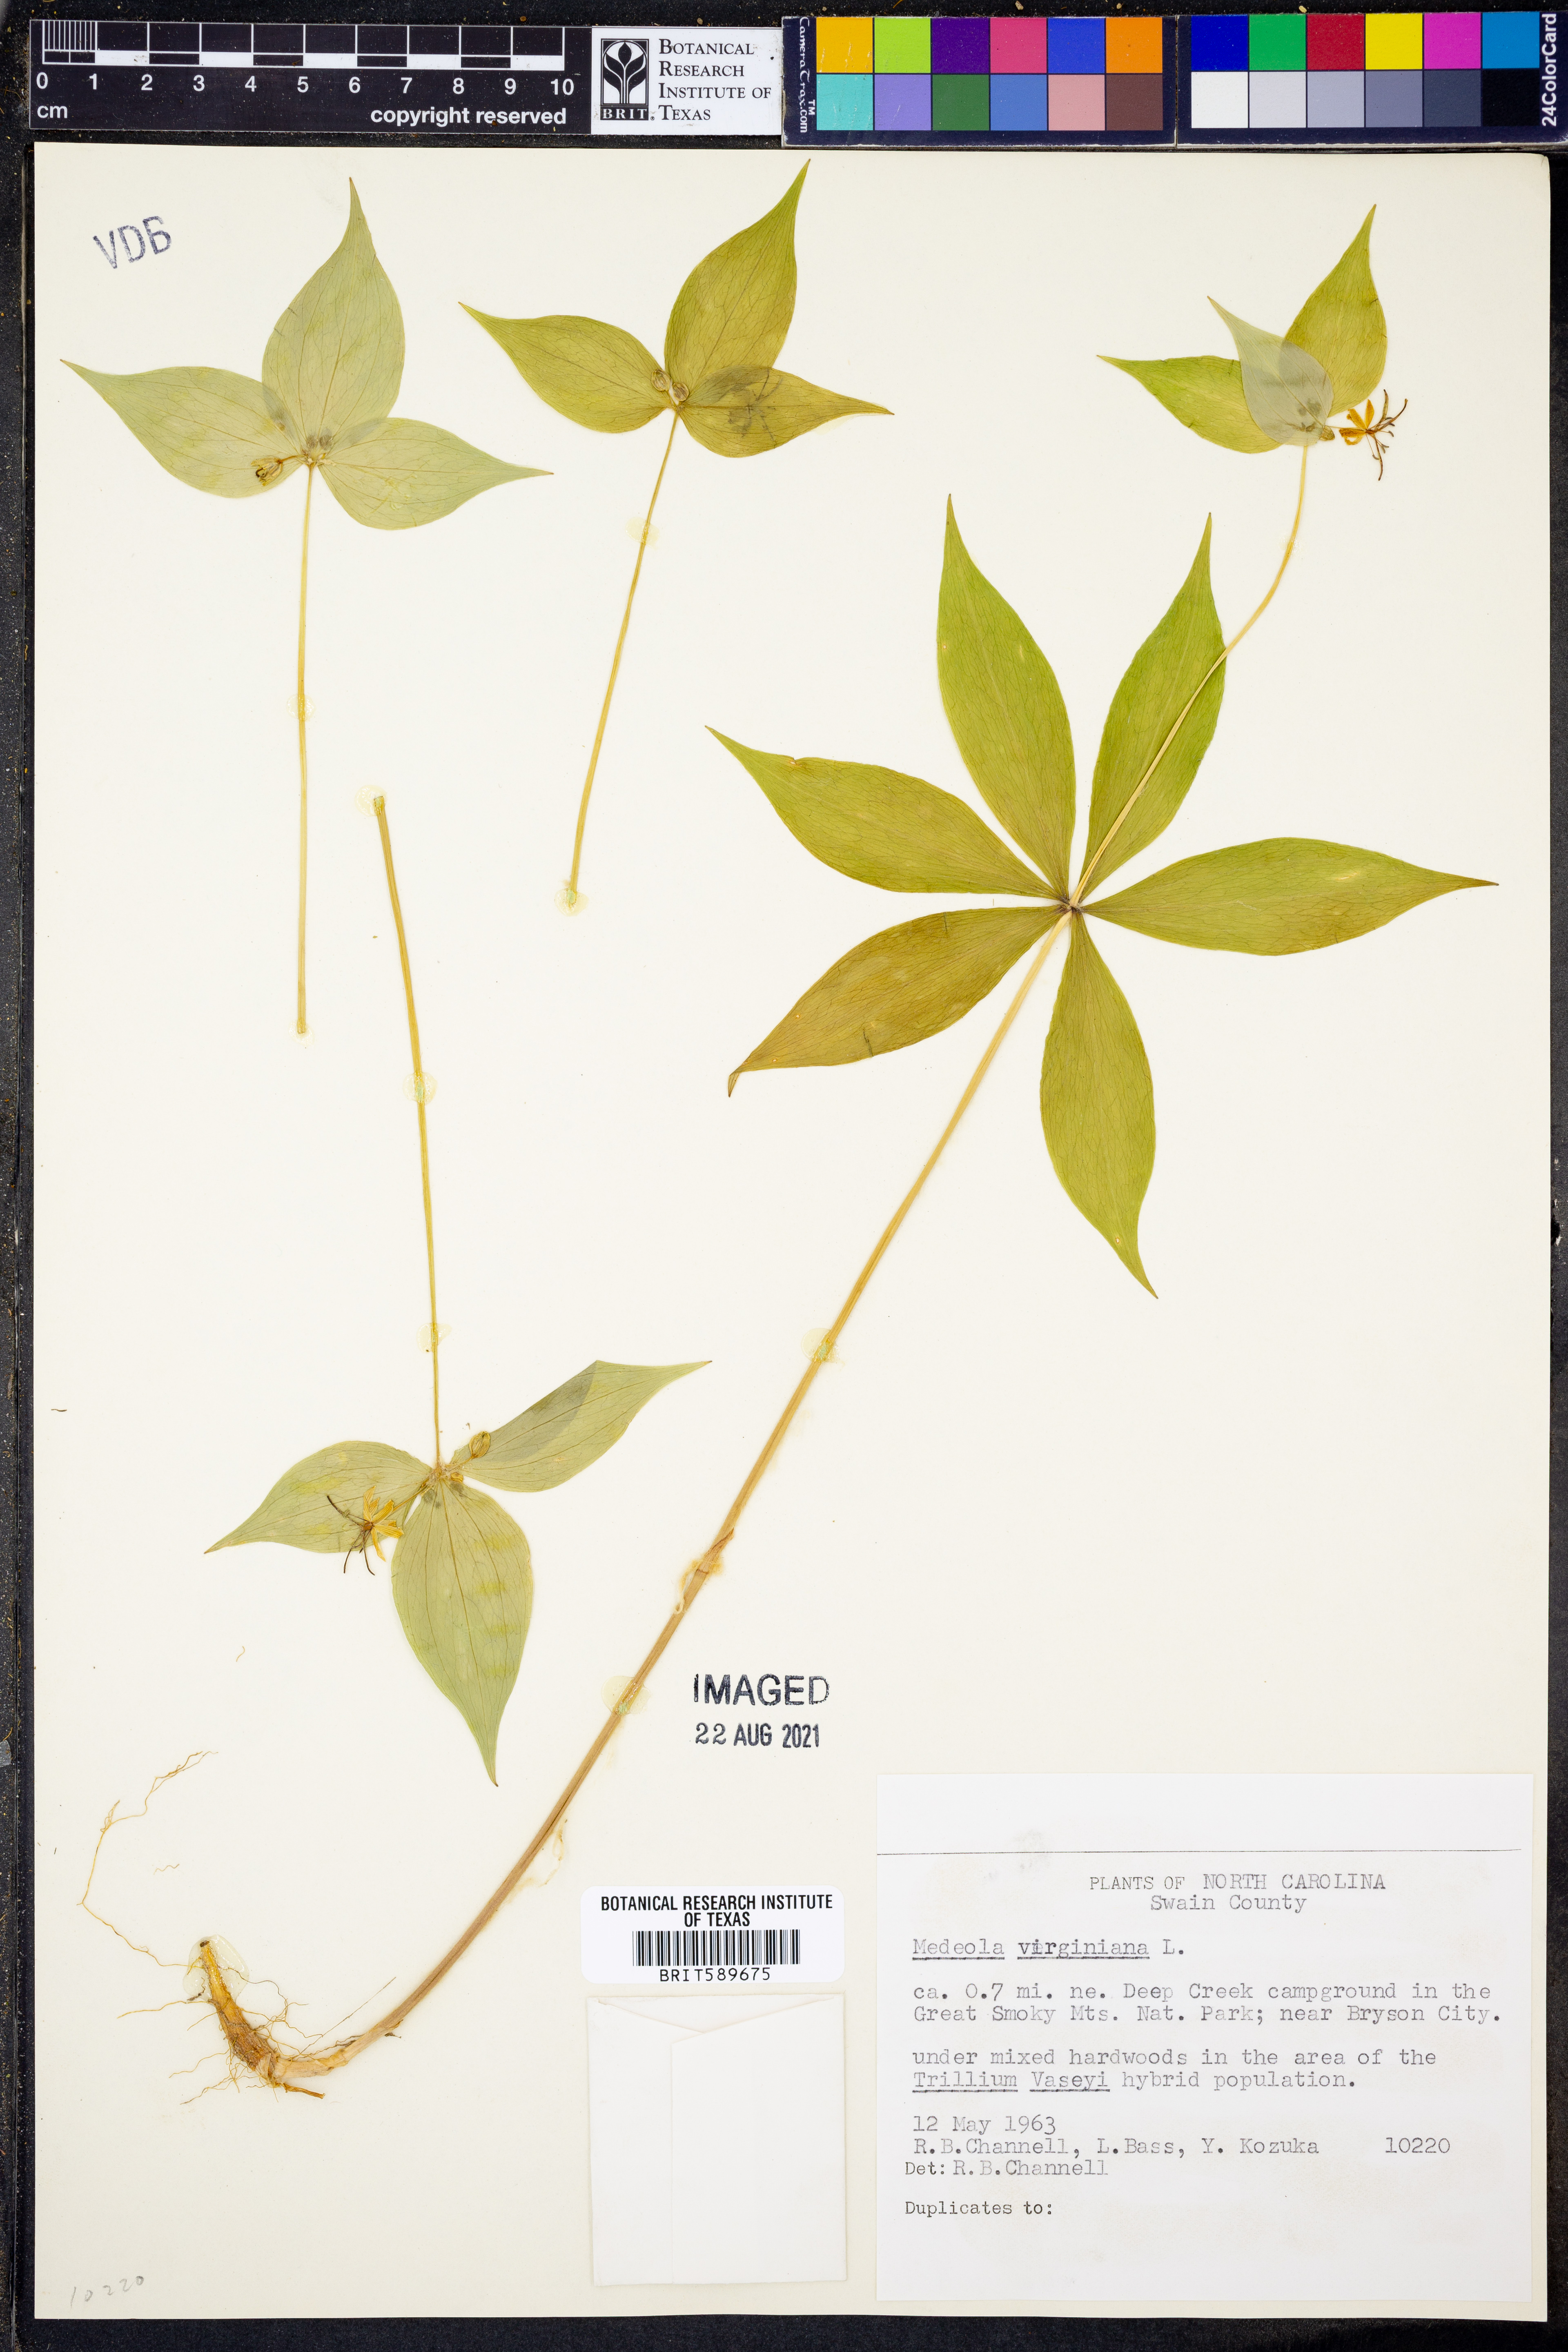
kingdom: Plantae
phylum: Tracheophyta
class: Liliopsida
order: Liliales
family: Liliaceae
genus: Medeola
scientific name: Medeola virginiana
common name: Indian cucumber-root
